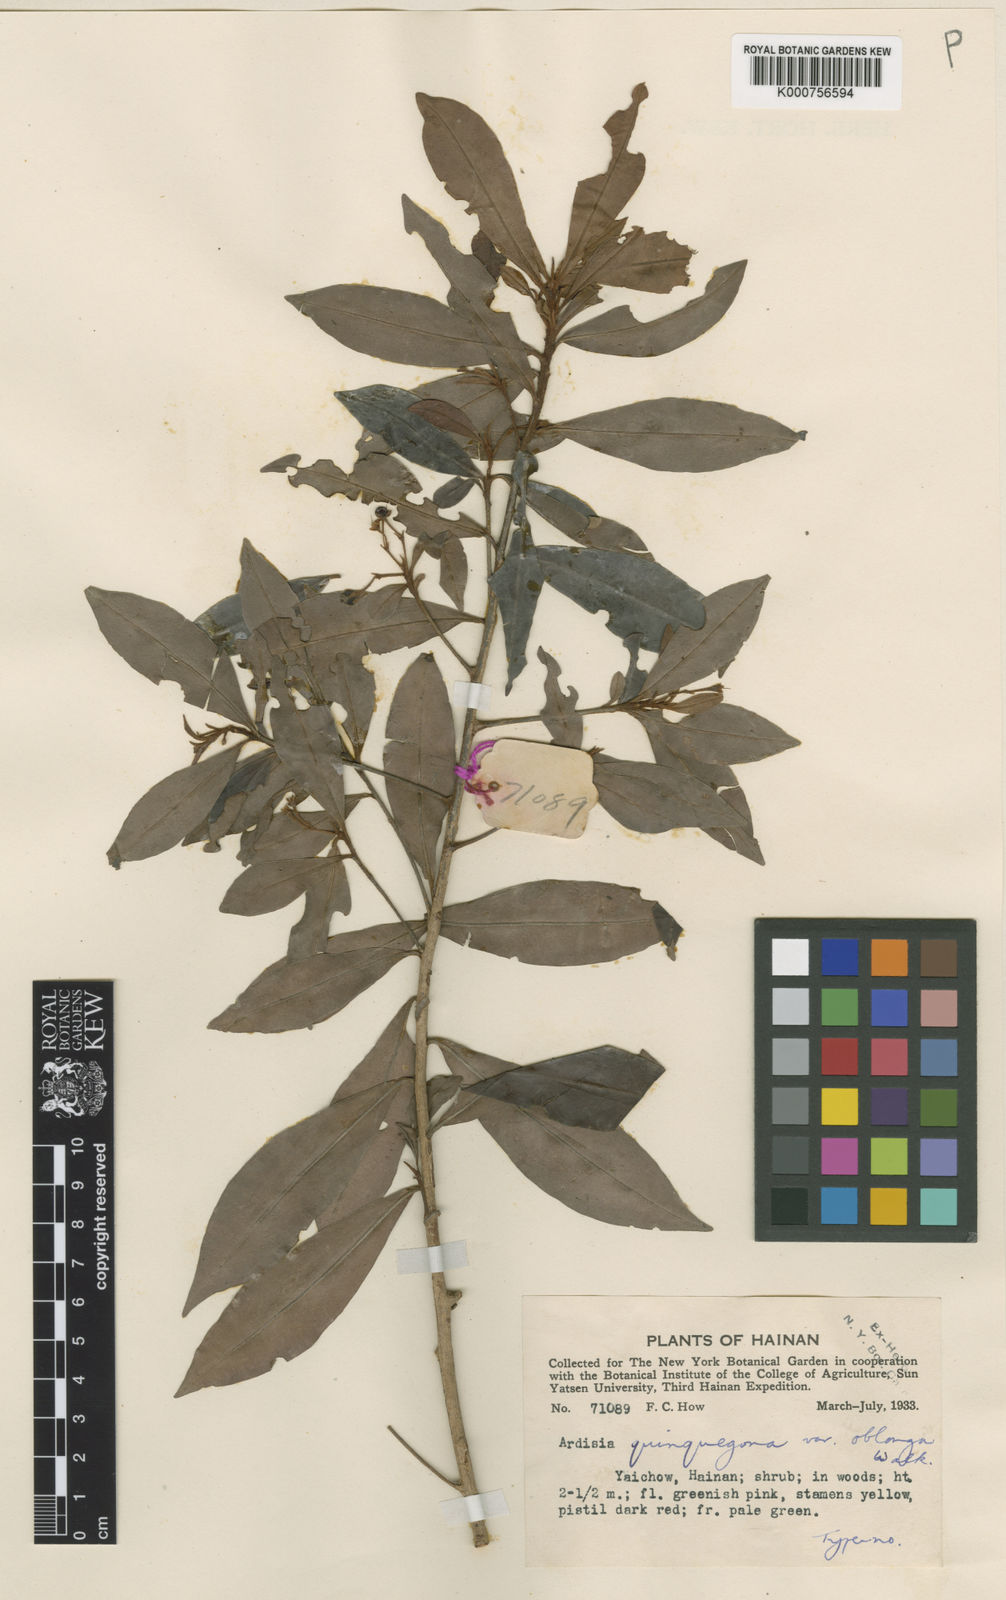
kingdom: Plantae
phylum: Tracheophyta
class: Magnoliopsida
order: Ericales
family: Primulaceae
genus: Ardisia
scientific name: Ardisia quinquegona
